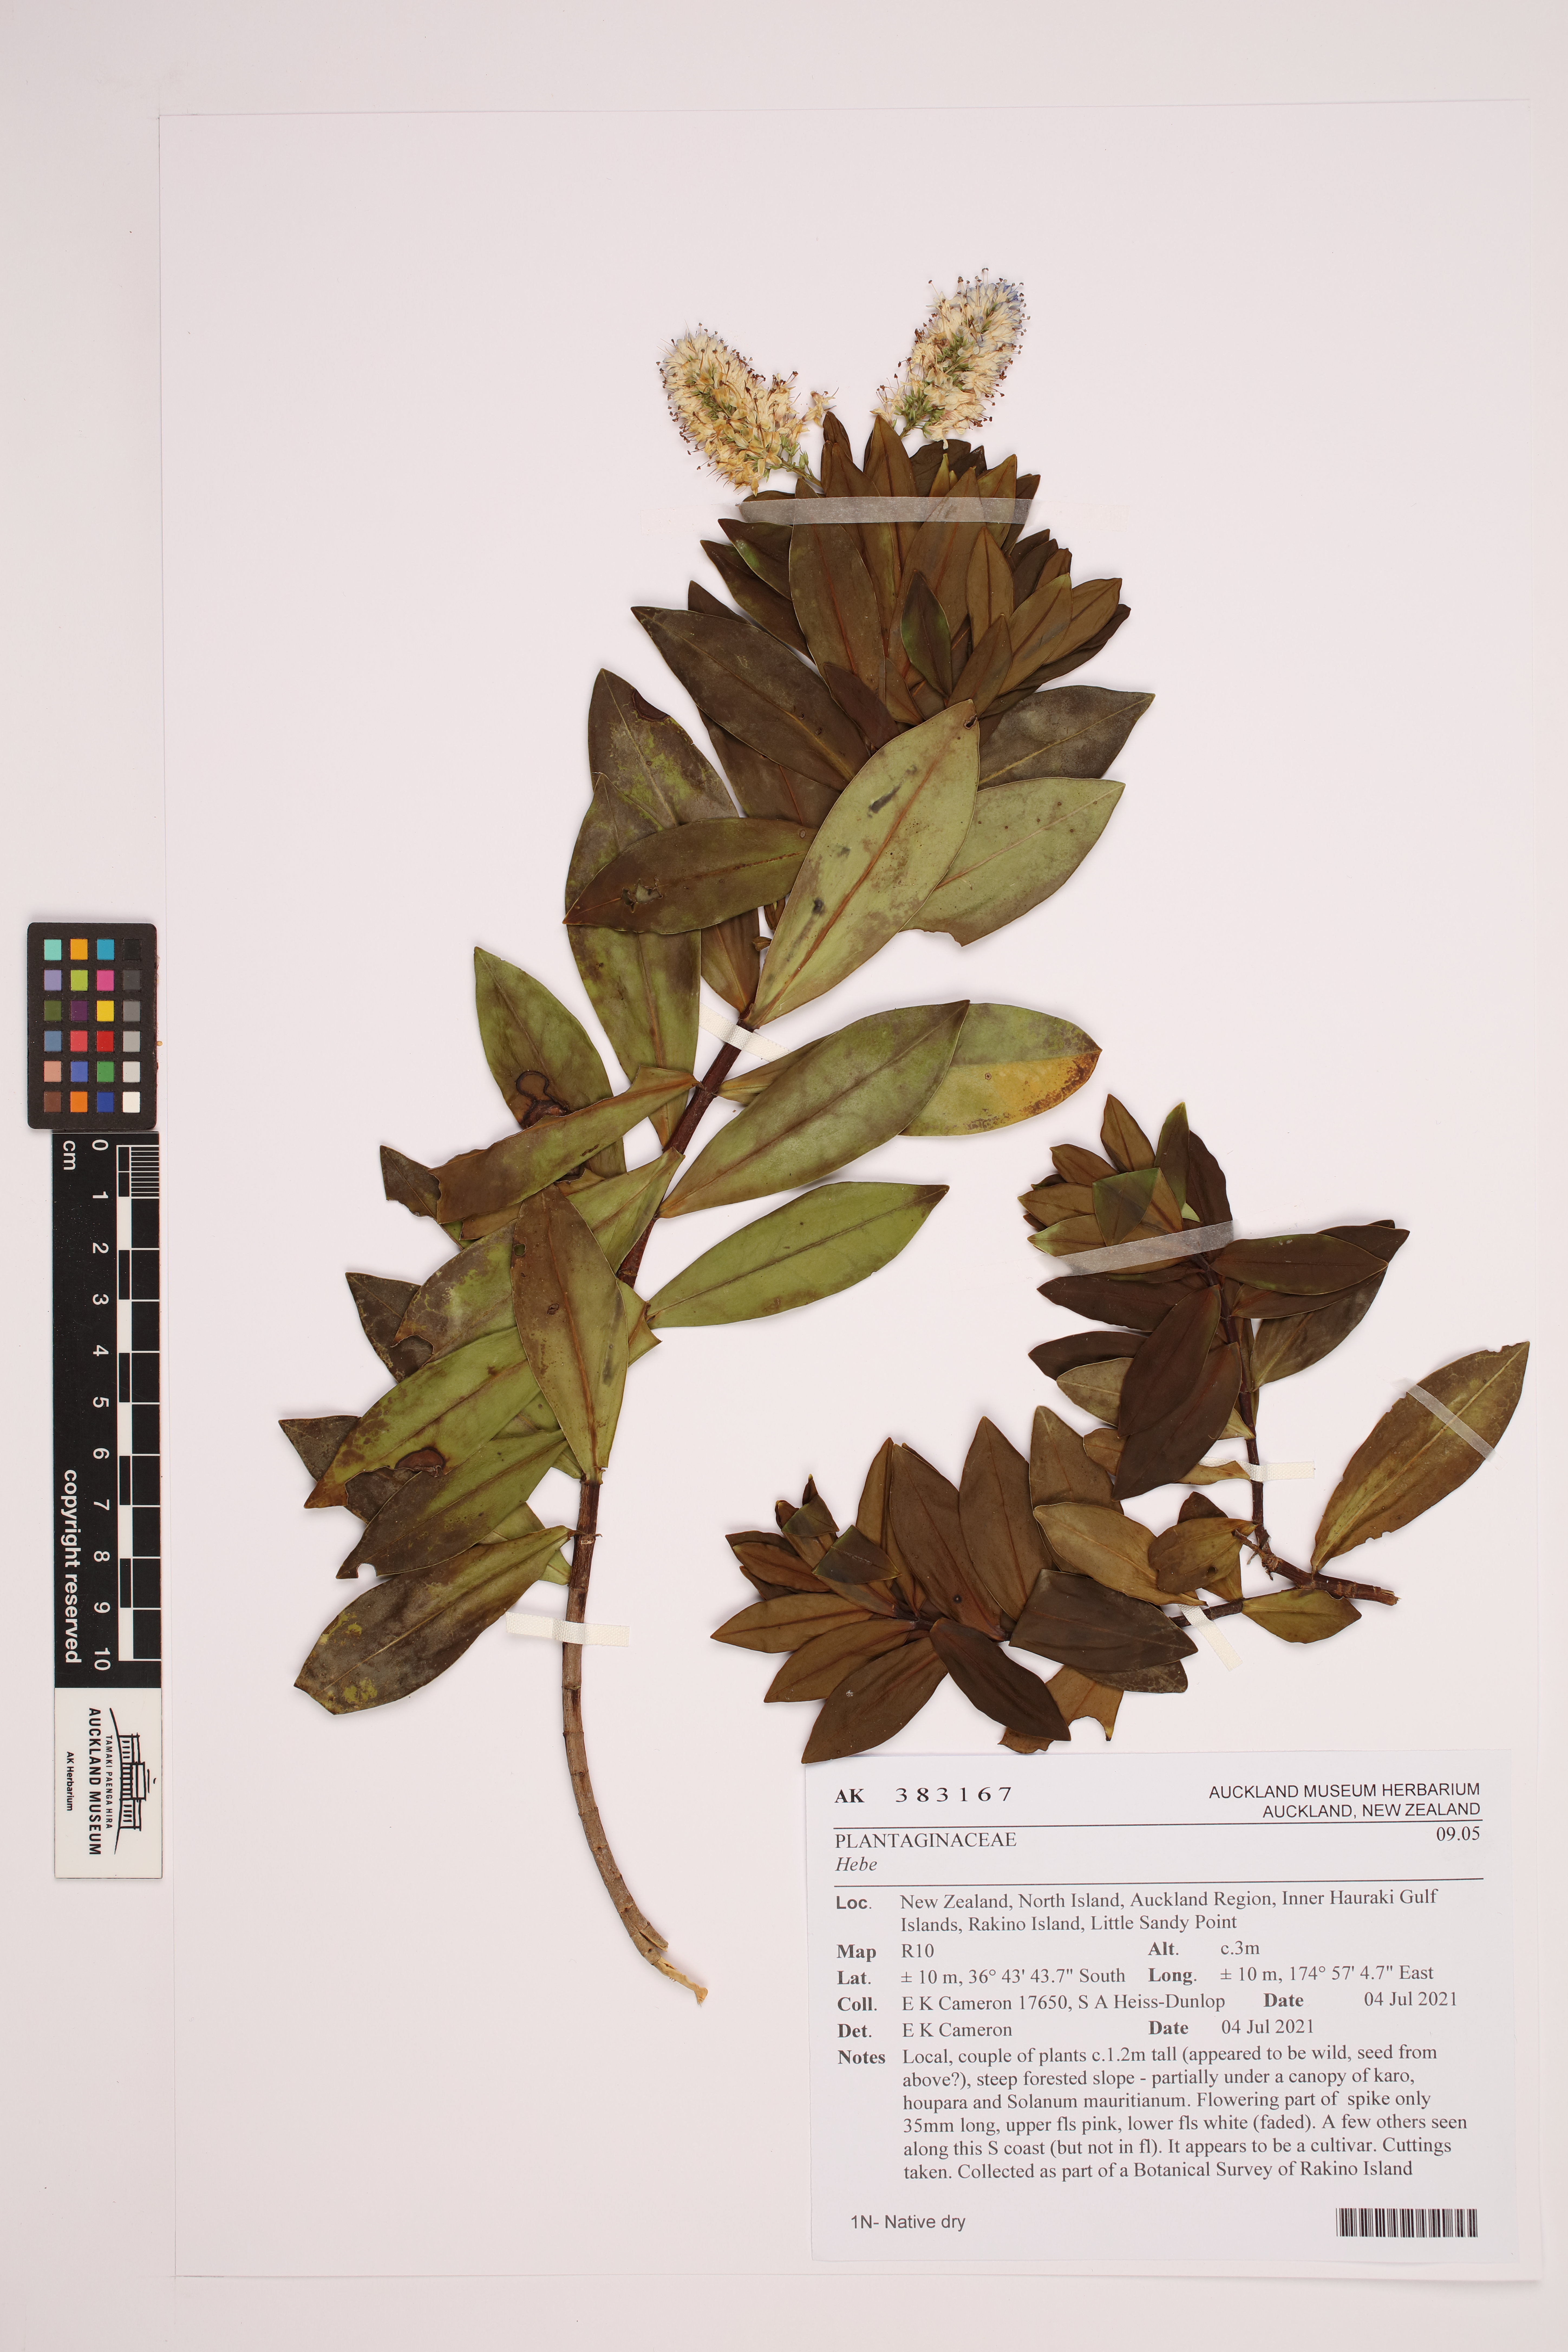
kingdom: Plantae
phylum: Tracheophyta
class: Magnoliopsida
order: Lamiales
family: Plantaginaceae
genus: Veronica
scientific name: Veronica
